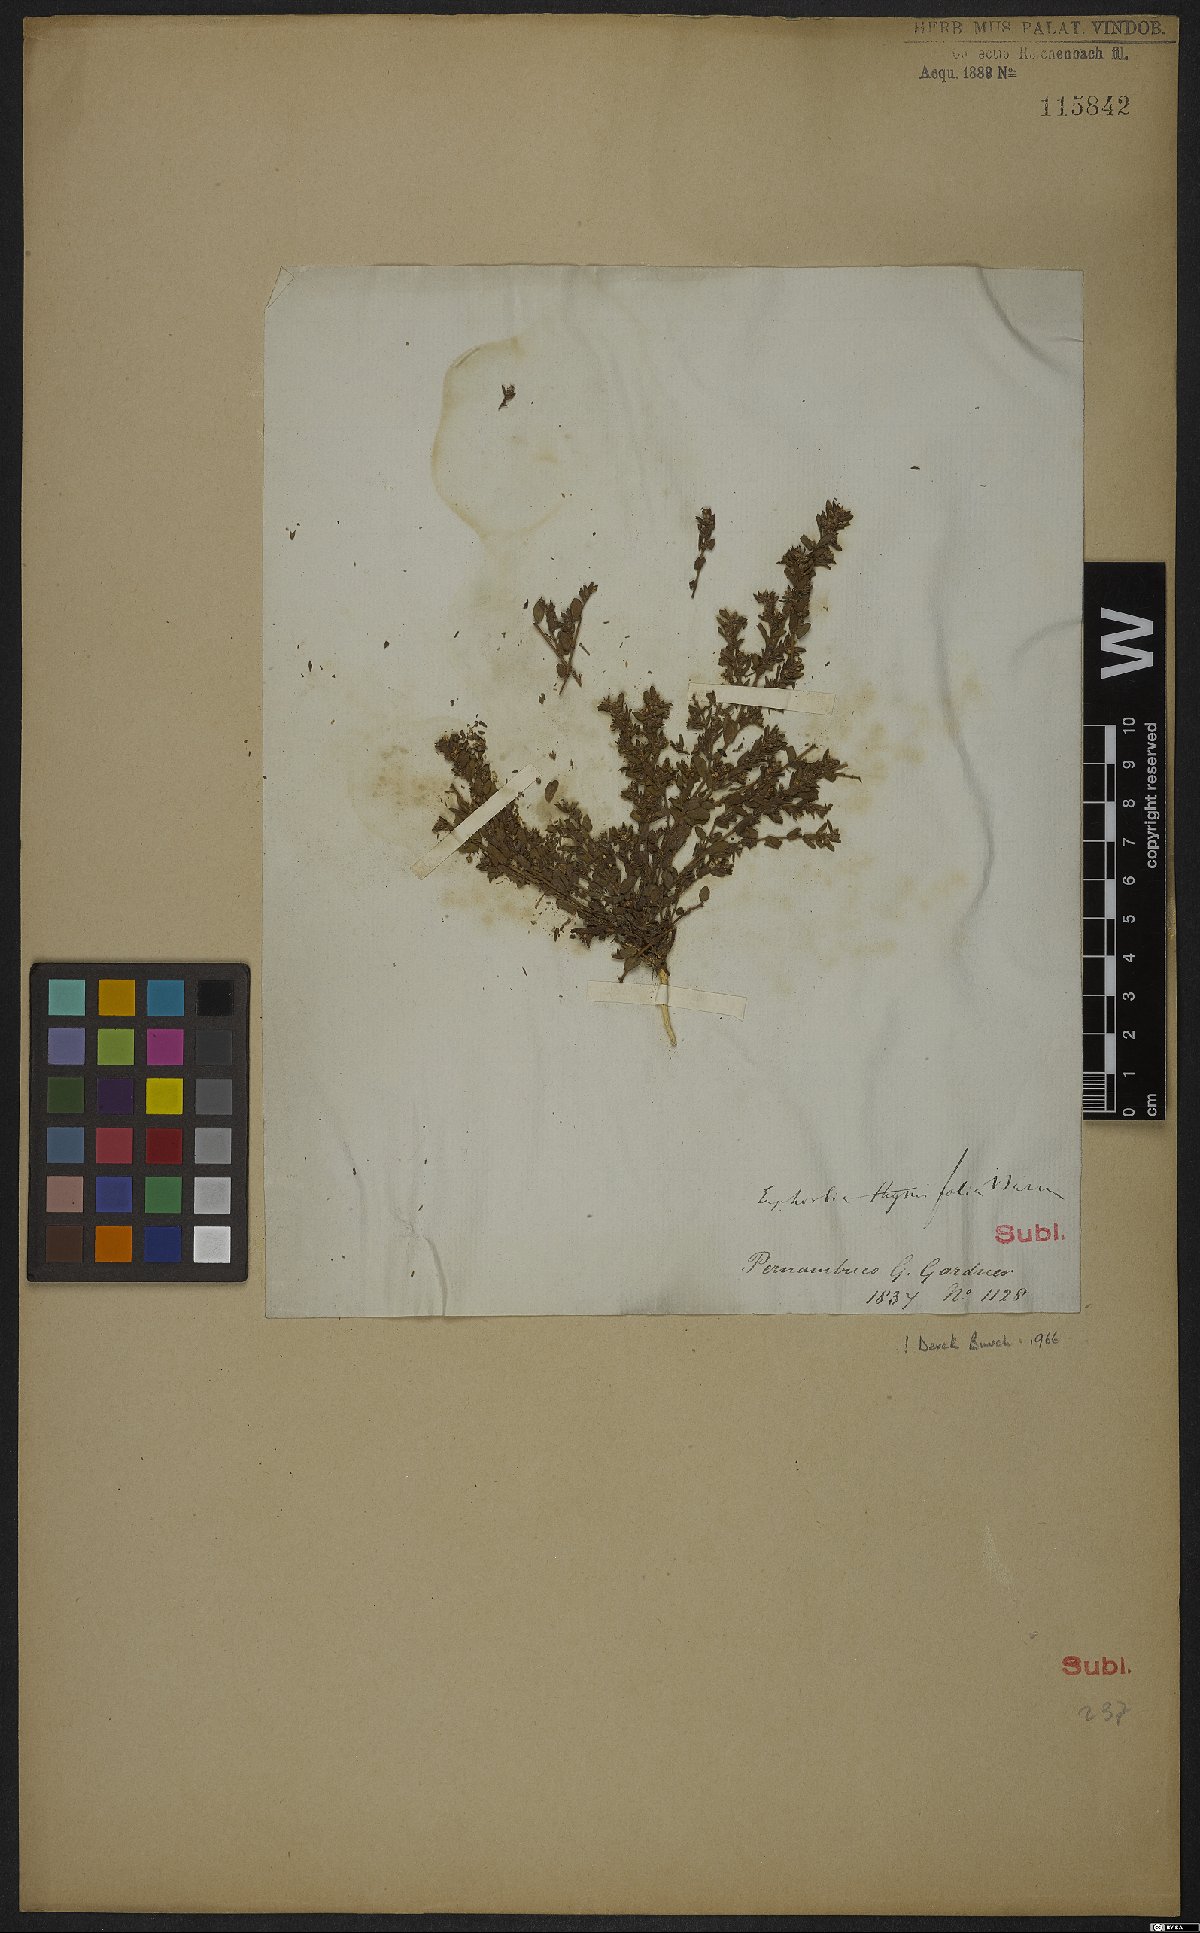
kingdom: Plantae
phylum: Tracheophyta
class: Magnoliopsida
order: Malpighiales
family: Euphorbiaceae
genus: Euphorbia
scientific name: Euphorbia scordiifolia
